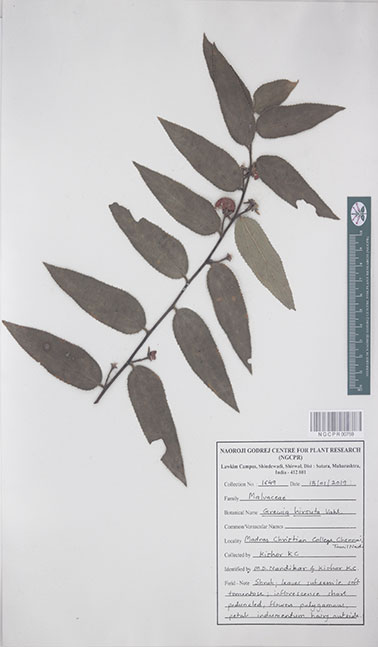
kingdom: Plantae
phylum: Tracheophyta
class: Magnoliopsida
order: Malvales
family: Malvaceae
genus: Grewia
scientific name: Grewia hirsuta
